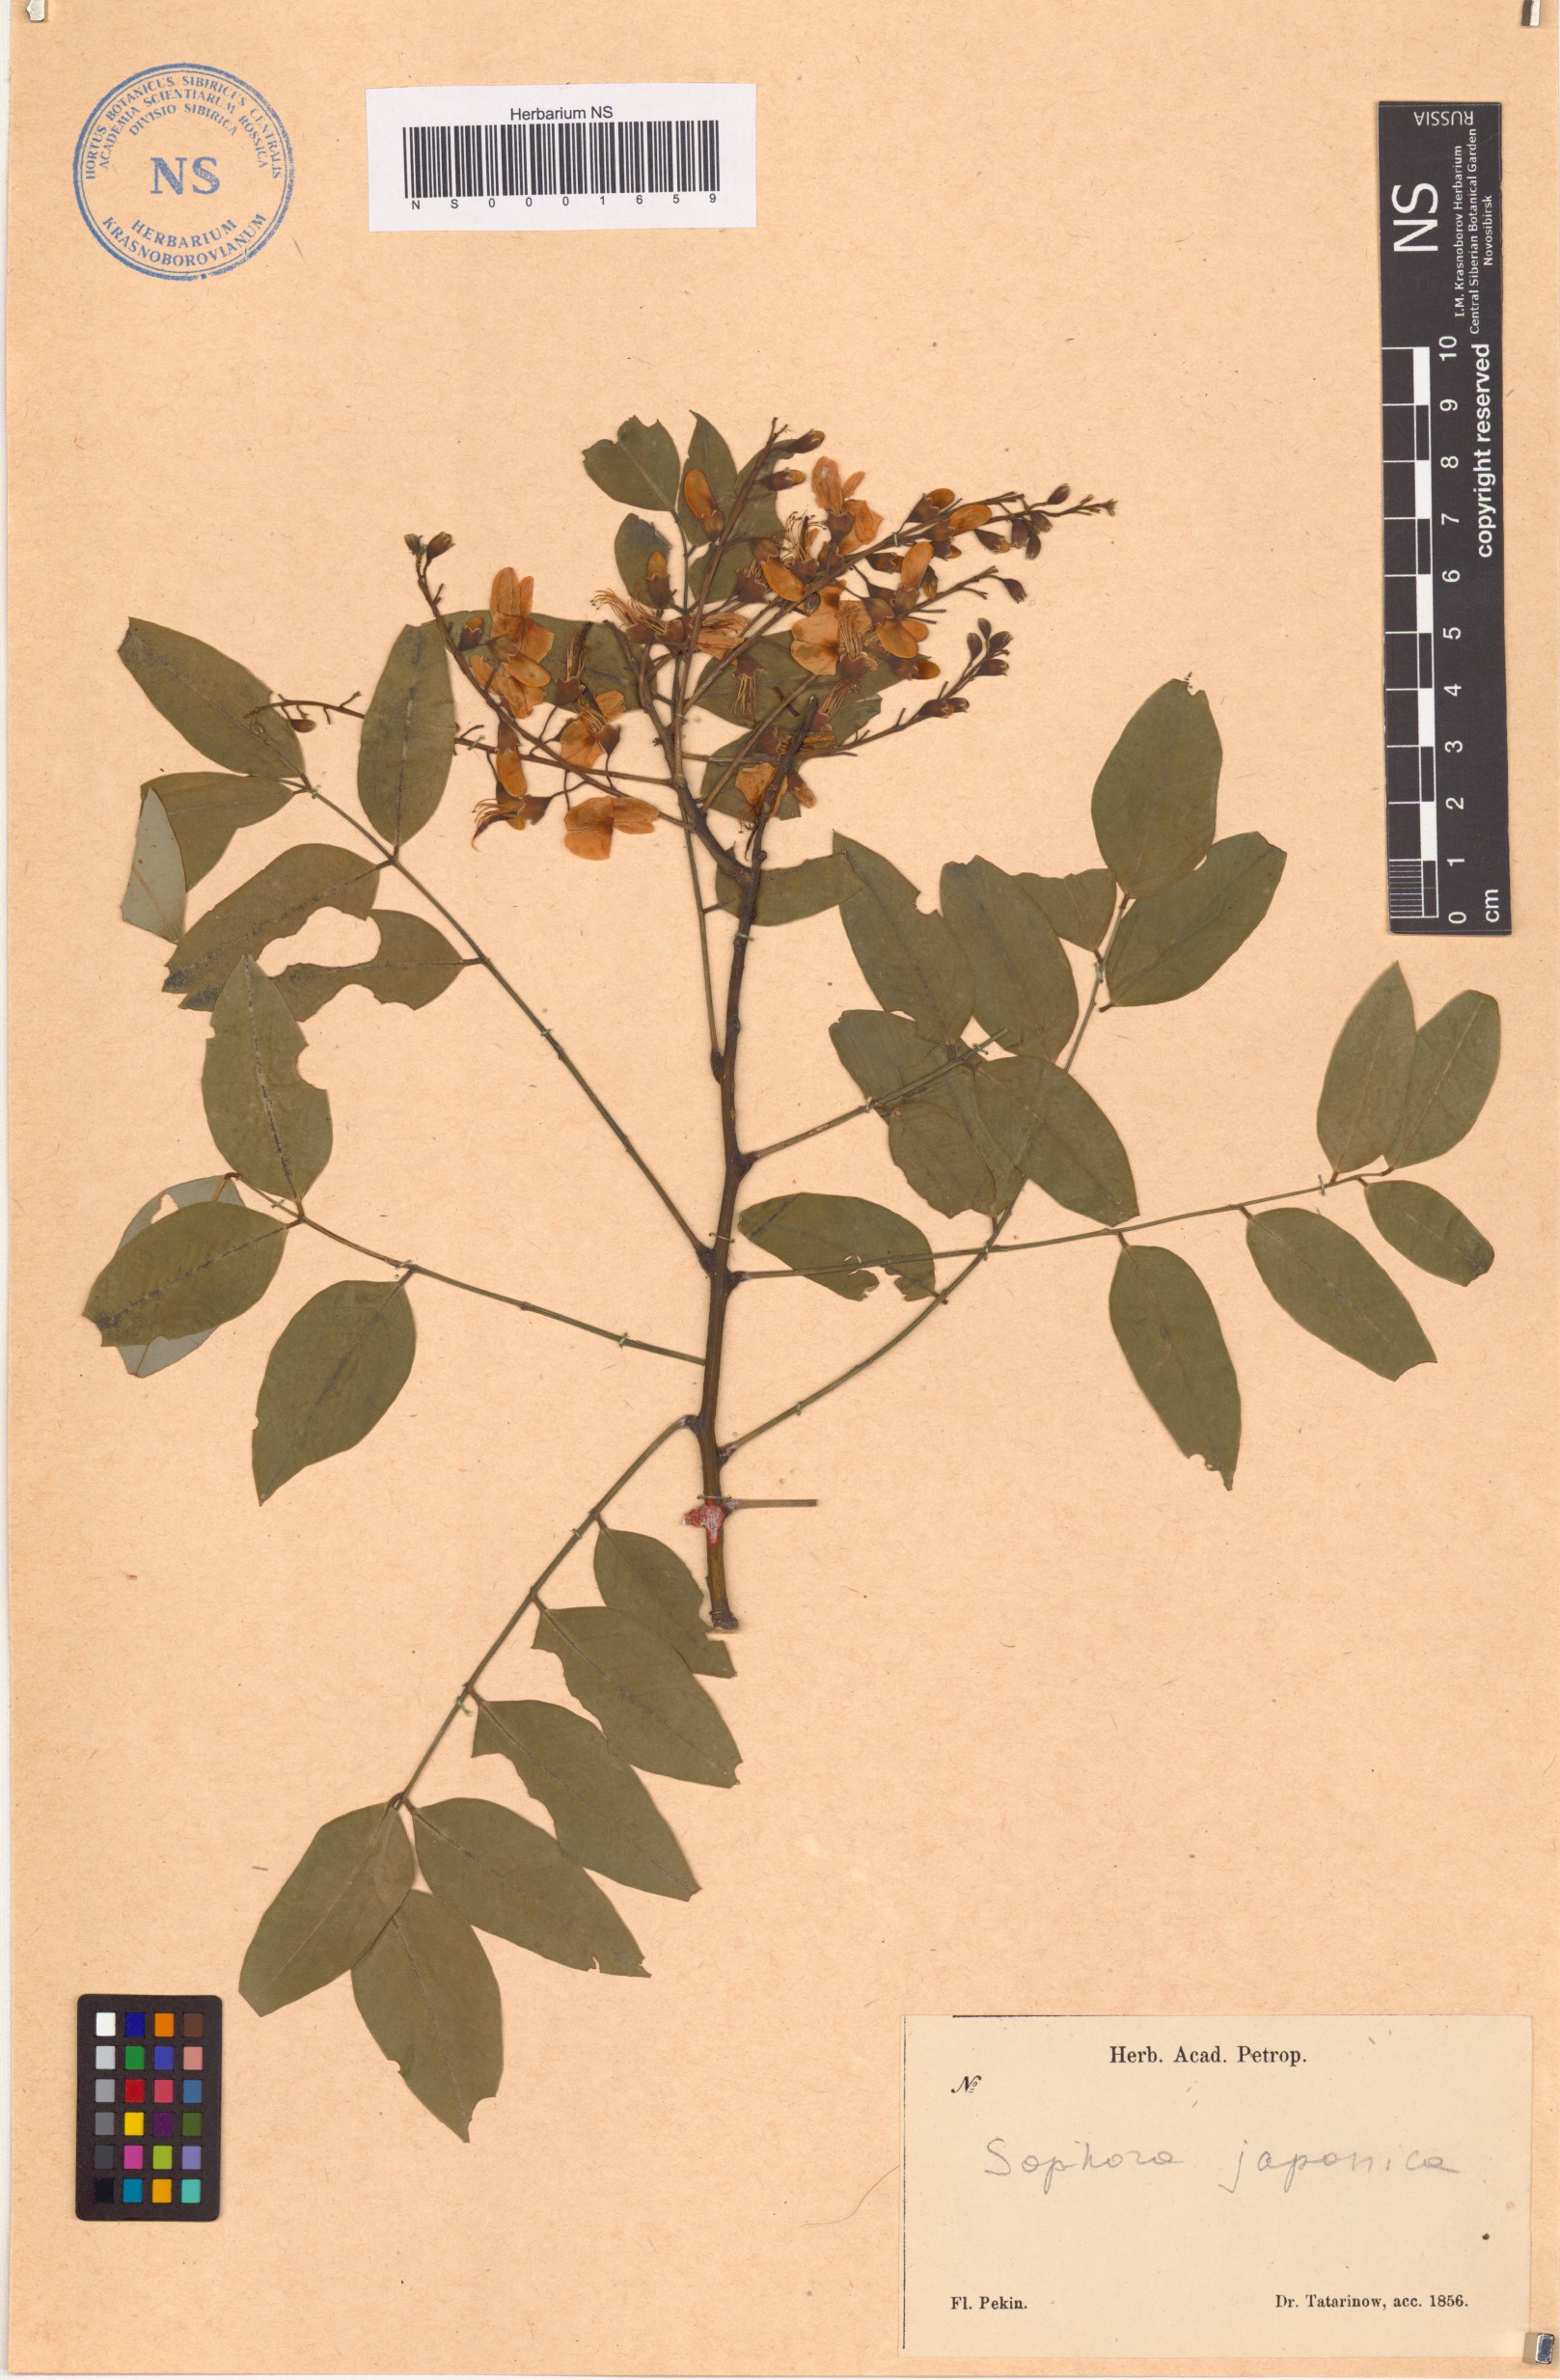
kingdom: Plantae
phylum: Tracheophyta
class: Magnoliopsida
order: Fabales
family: Fabaceae
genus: Styphnolobium
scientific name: Styphnolobium japonicum
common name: Chinese scholartree
